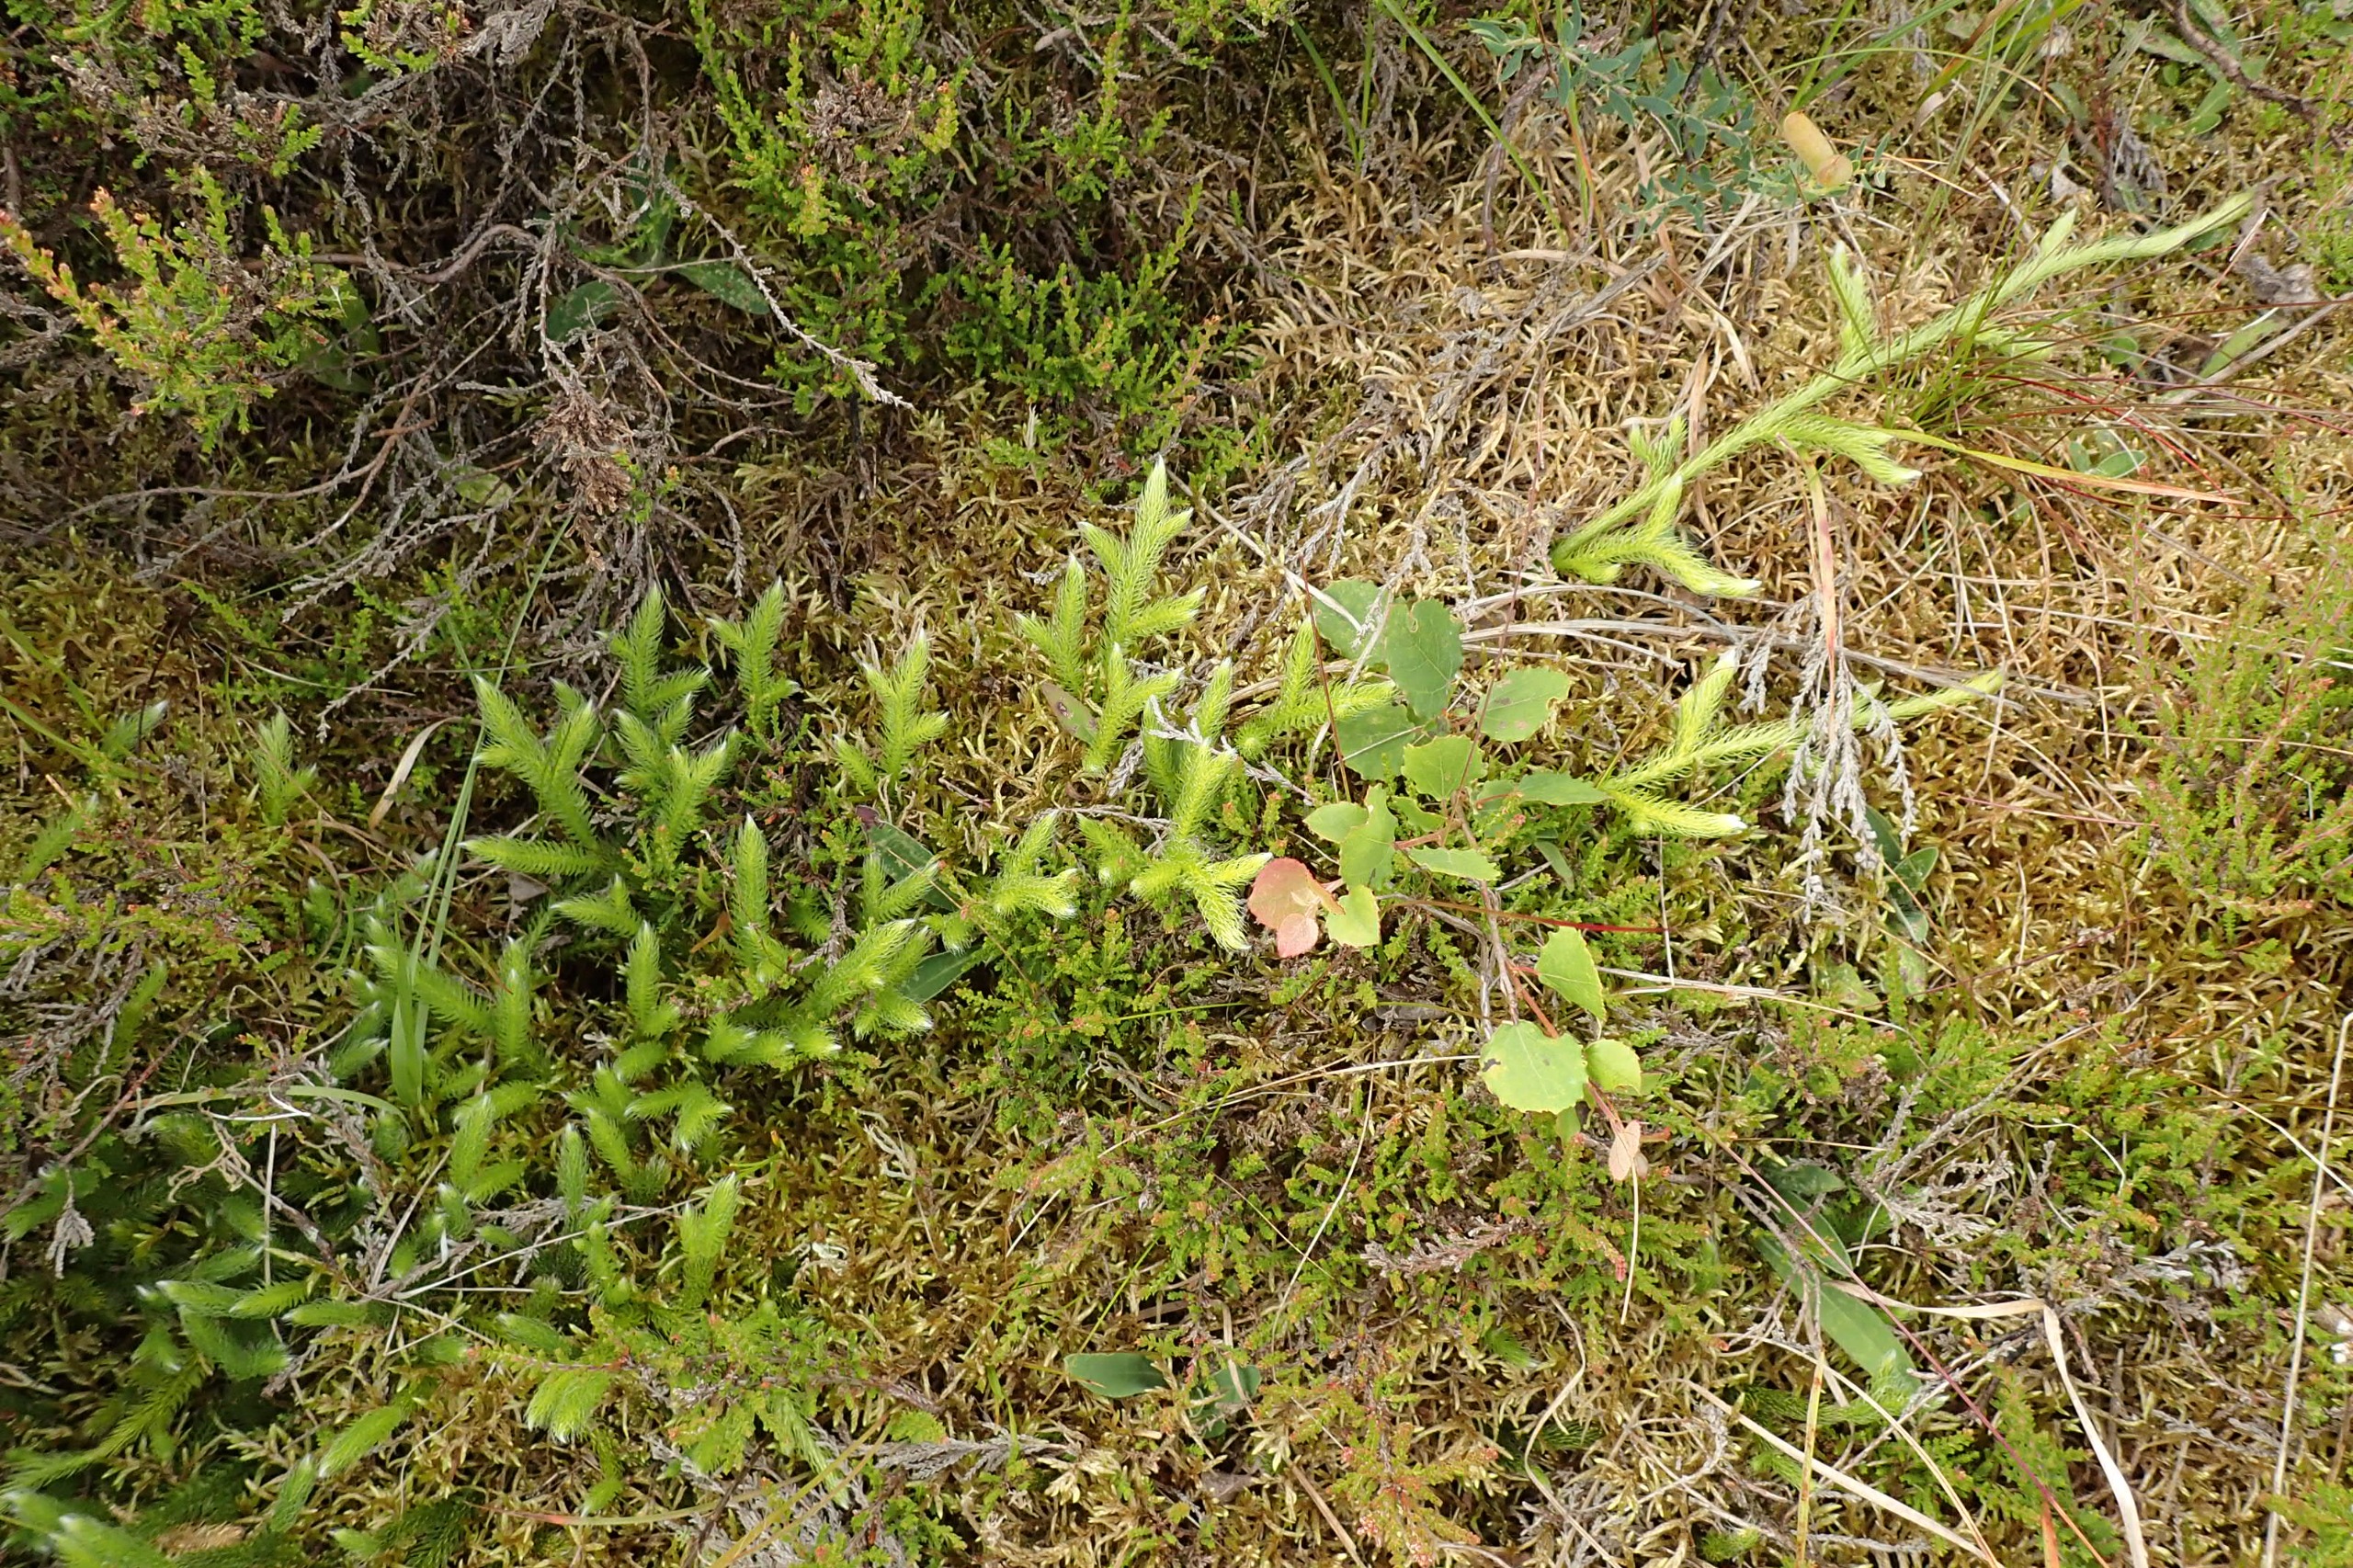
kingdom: Plantae
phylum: Tracheophyta
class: Lycopodiopsida
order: Lycopodiales
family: Lycopodiaceae
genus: Lycopodium
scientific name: Lycopodium clavatum
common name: Almindelig ulvefod
